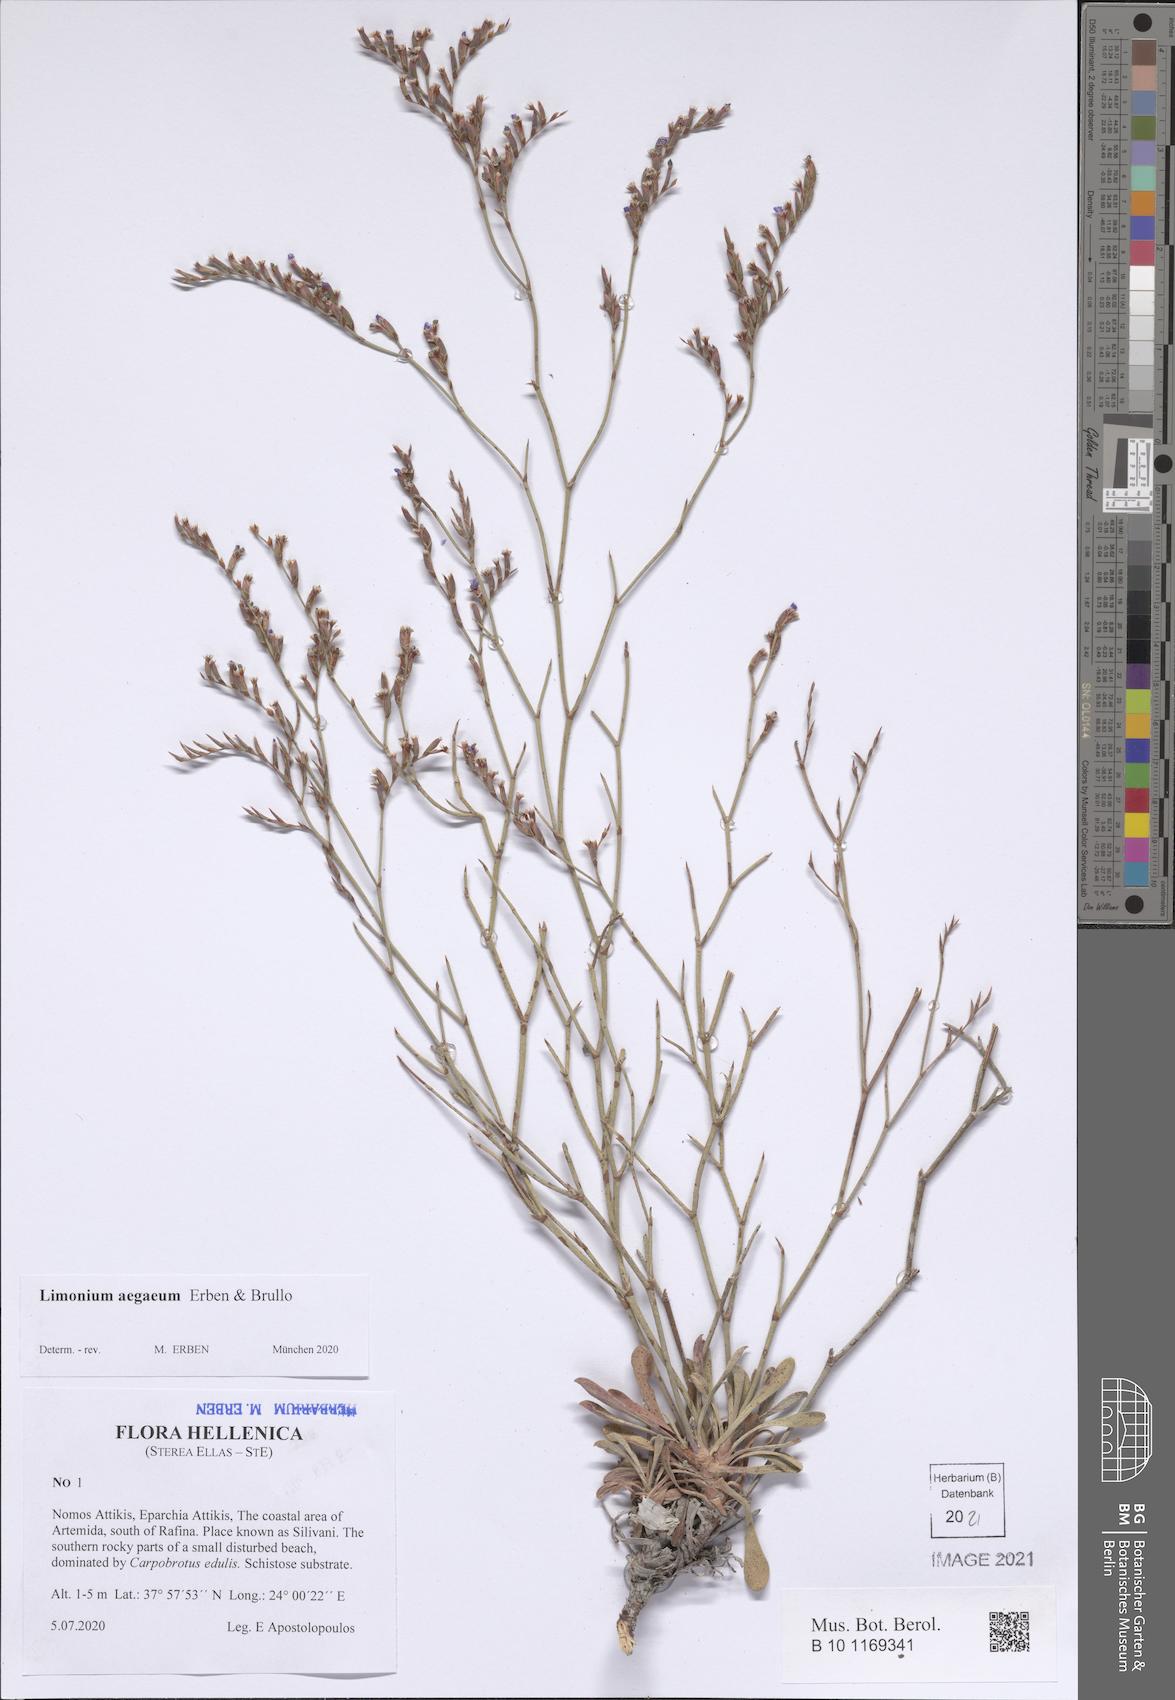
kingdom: Plantae
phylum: Tracheophyta
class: Magnoliopsida
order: Caryophyllales
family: Plumbaginaceae
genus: Limonium
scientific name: Limonium atticum
